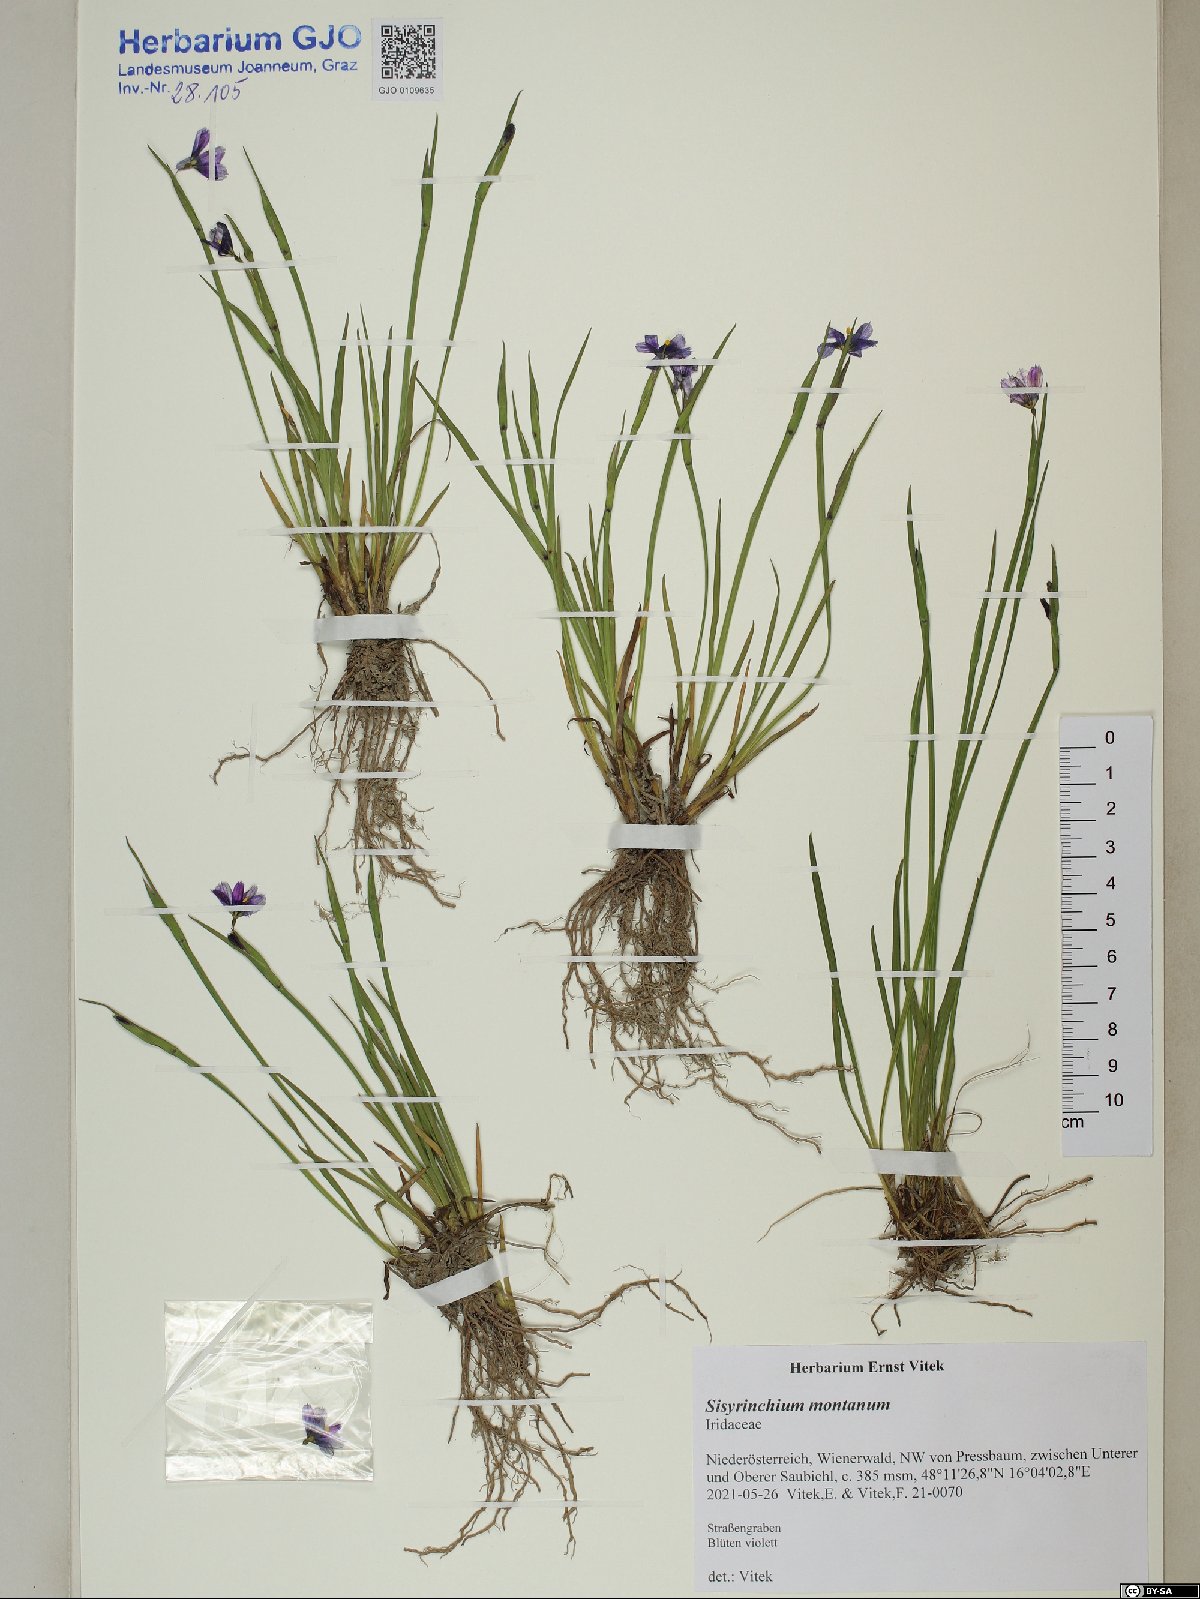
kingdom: Plantae
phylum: Tracheophyta
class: Liliopsida
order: Asparagales
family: Iridaceae
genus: Sisyrinchium
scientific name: Sisyrinchium montanum
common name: American blue-eyed-grass
